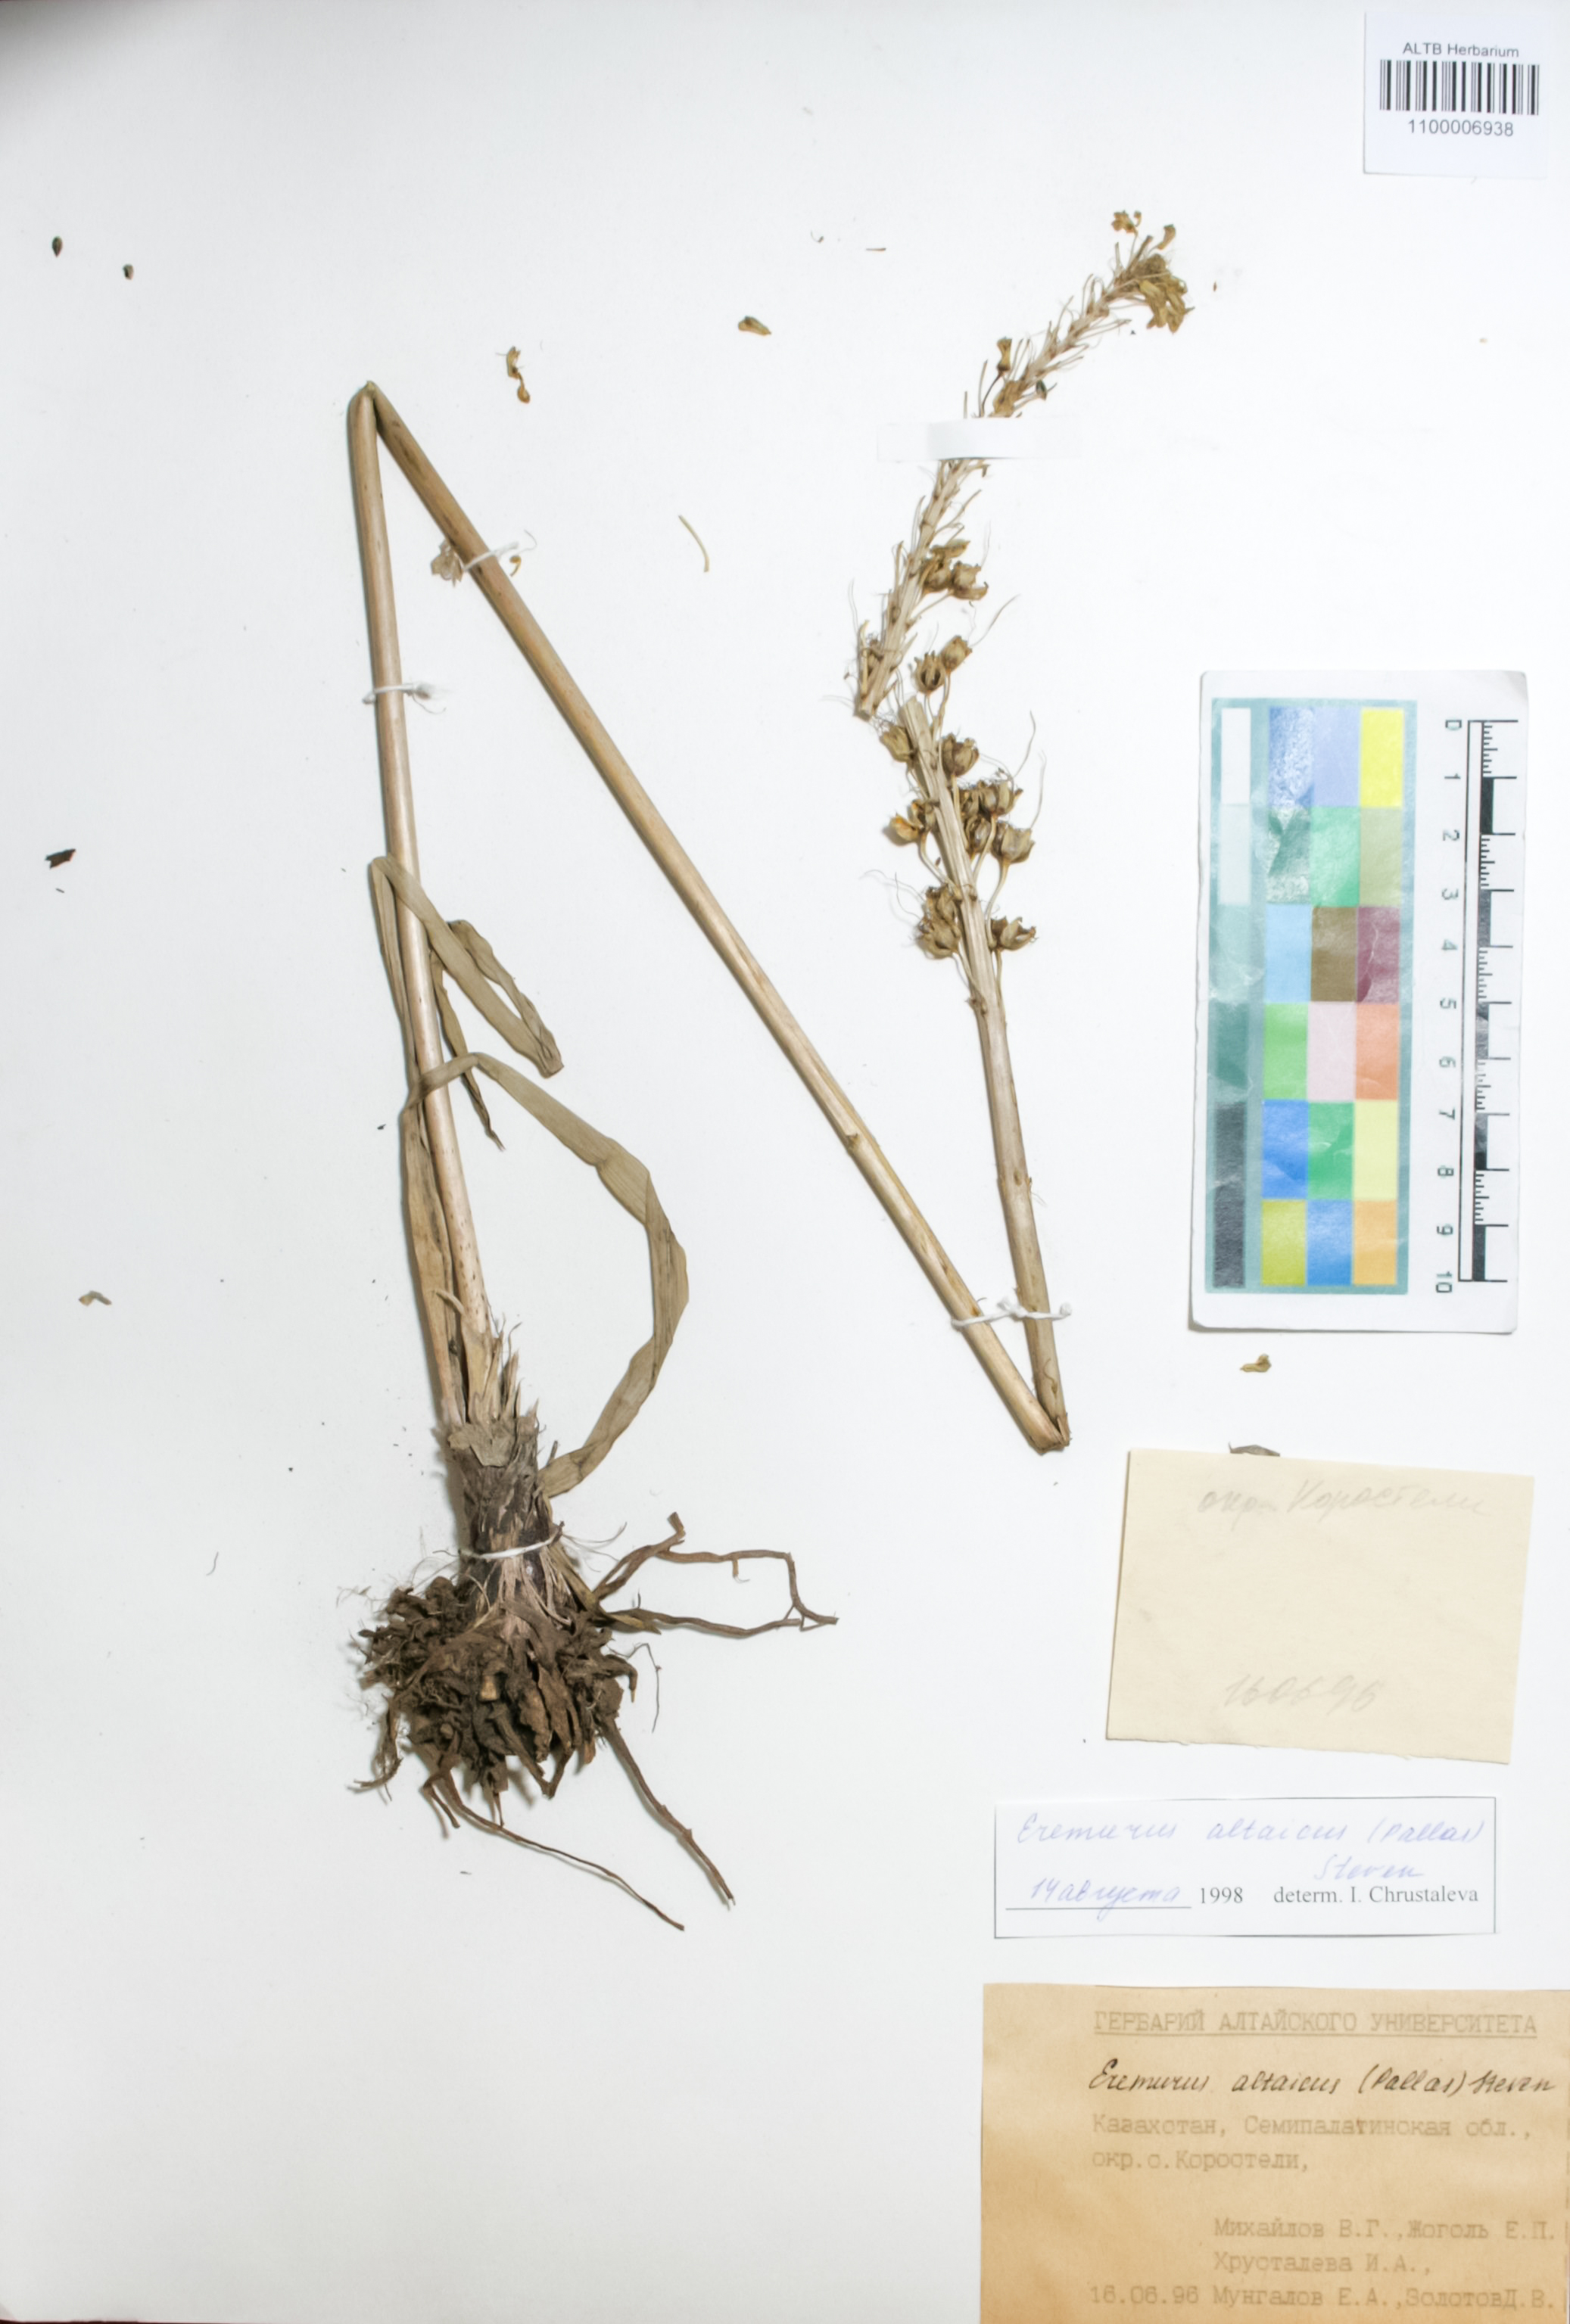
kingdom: Plantae
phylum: Tracheophyta
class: Liliopsida
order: Asparagales
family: Asphodelaceae
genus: Eremurus
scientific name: Eremurus altaicus
